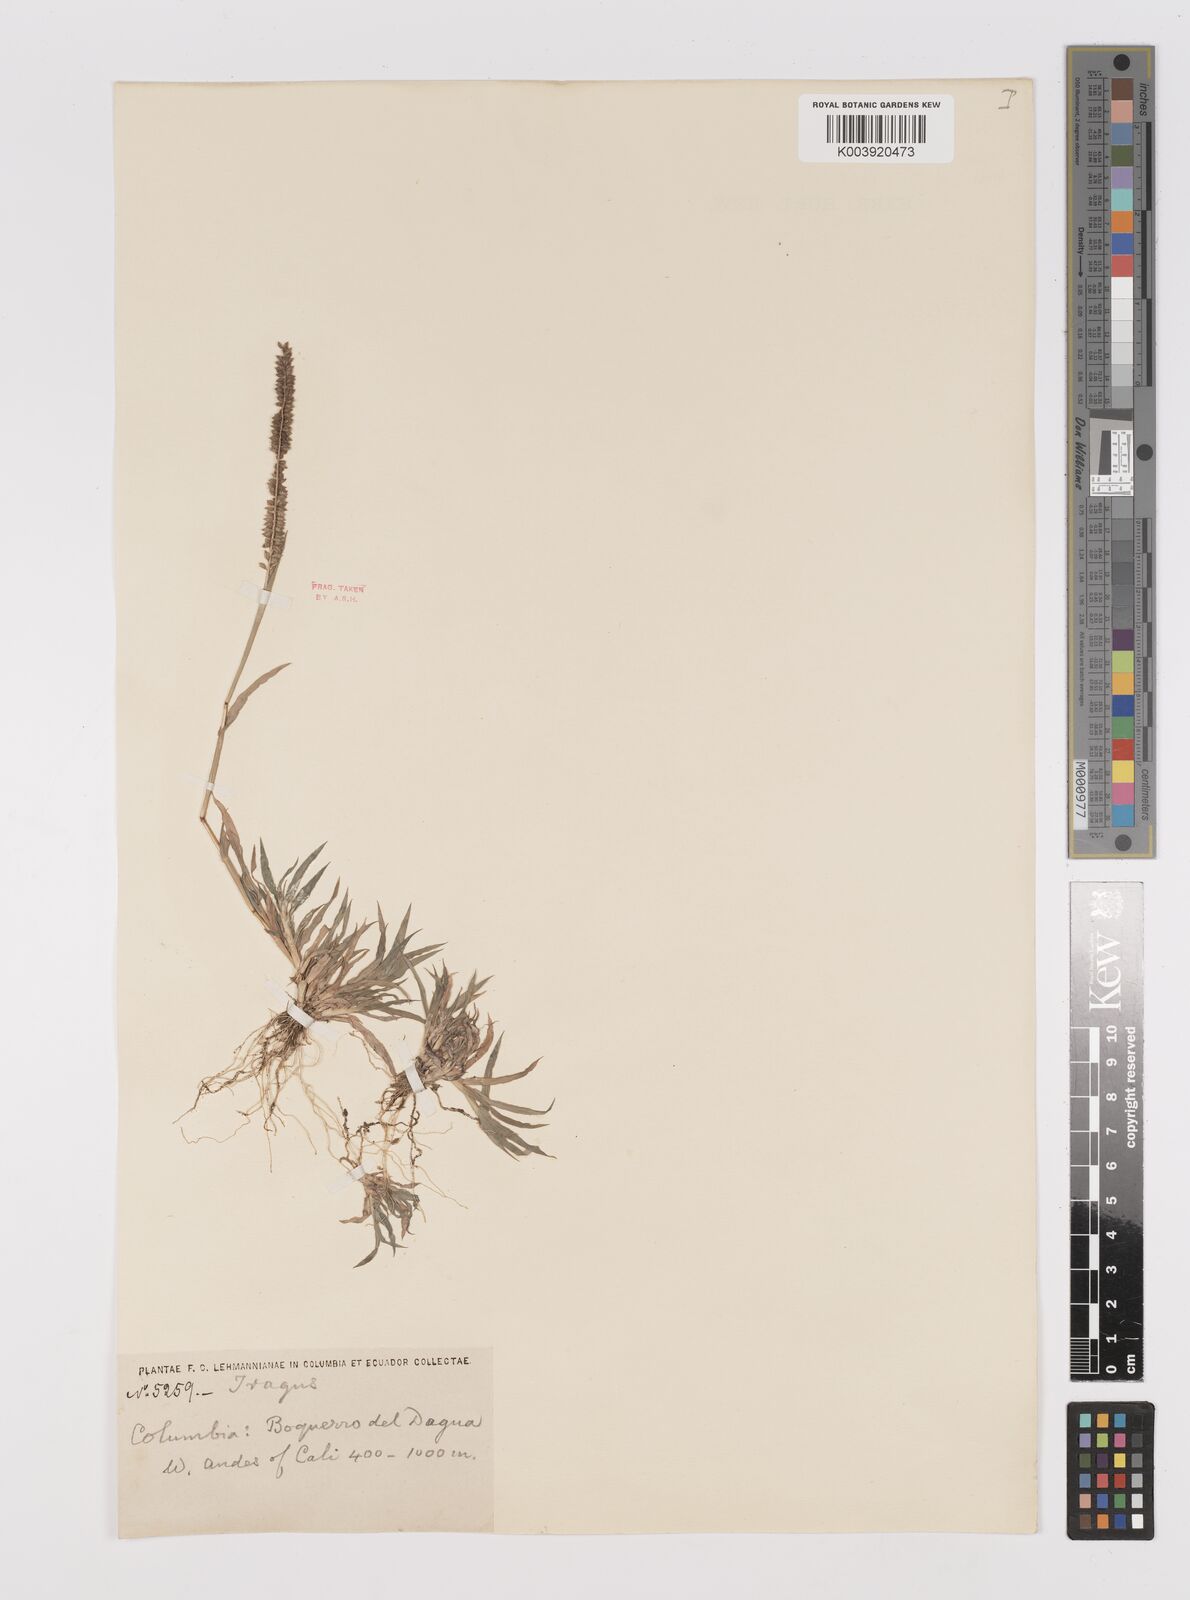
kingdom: Plantae
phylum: Tracheophyta
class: Liliopsida
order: Poales
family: Poaceae
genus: Tragus
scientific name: Tragus berteronianus
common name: African bur-grass
